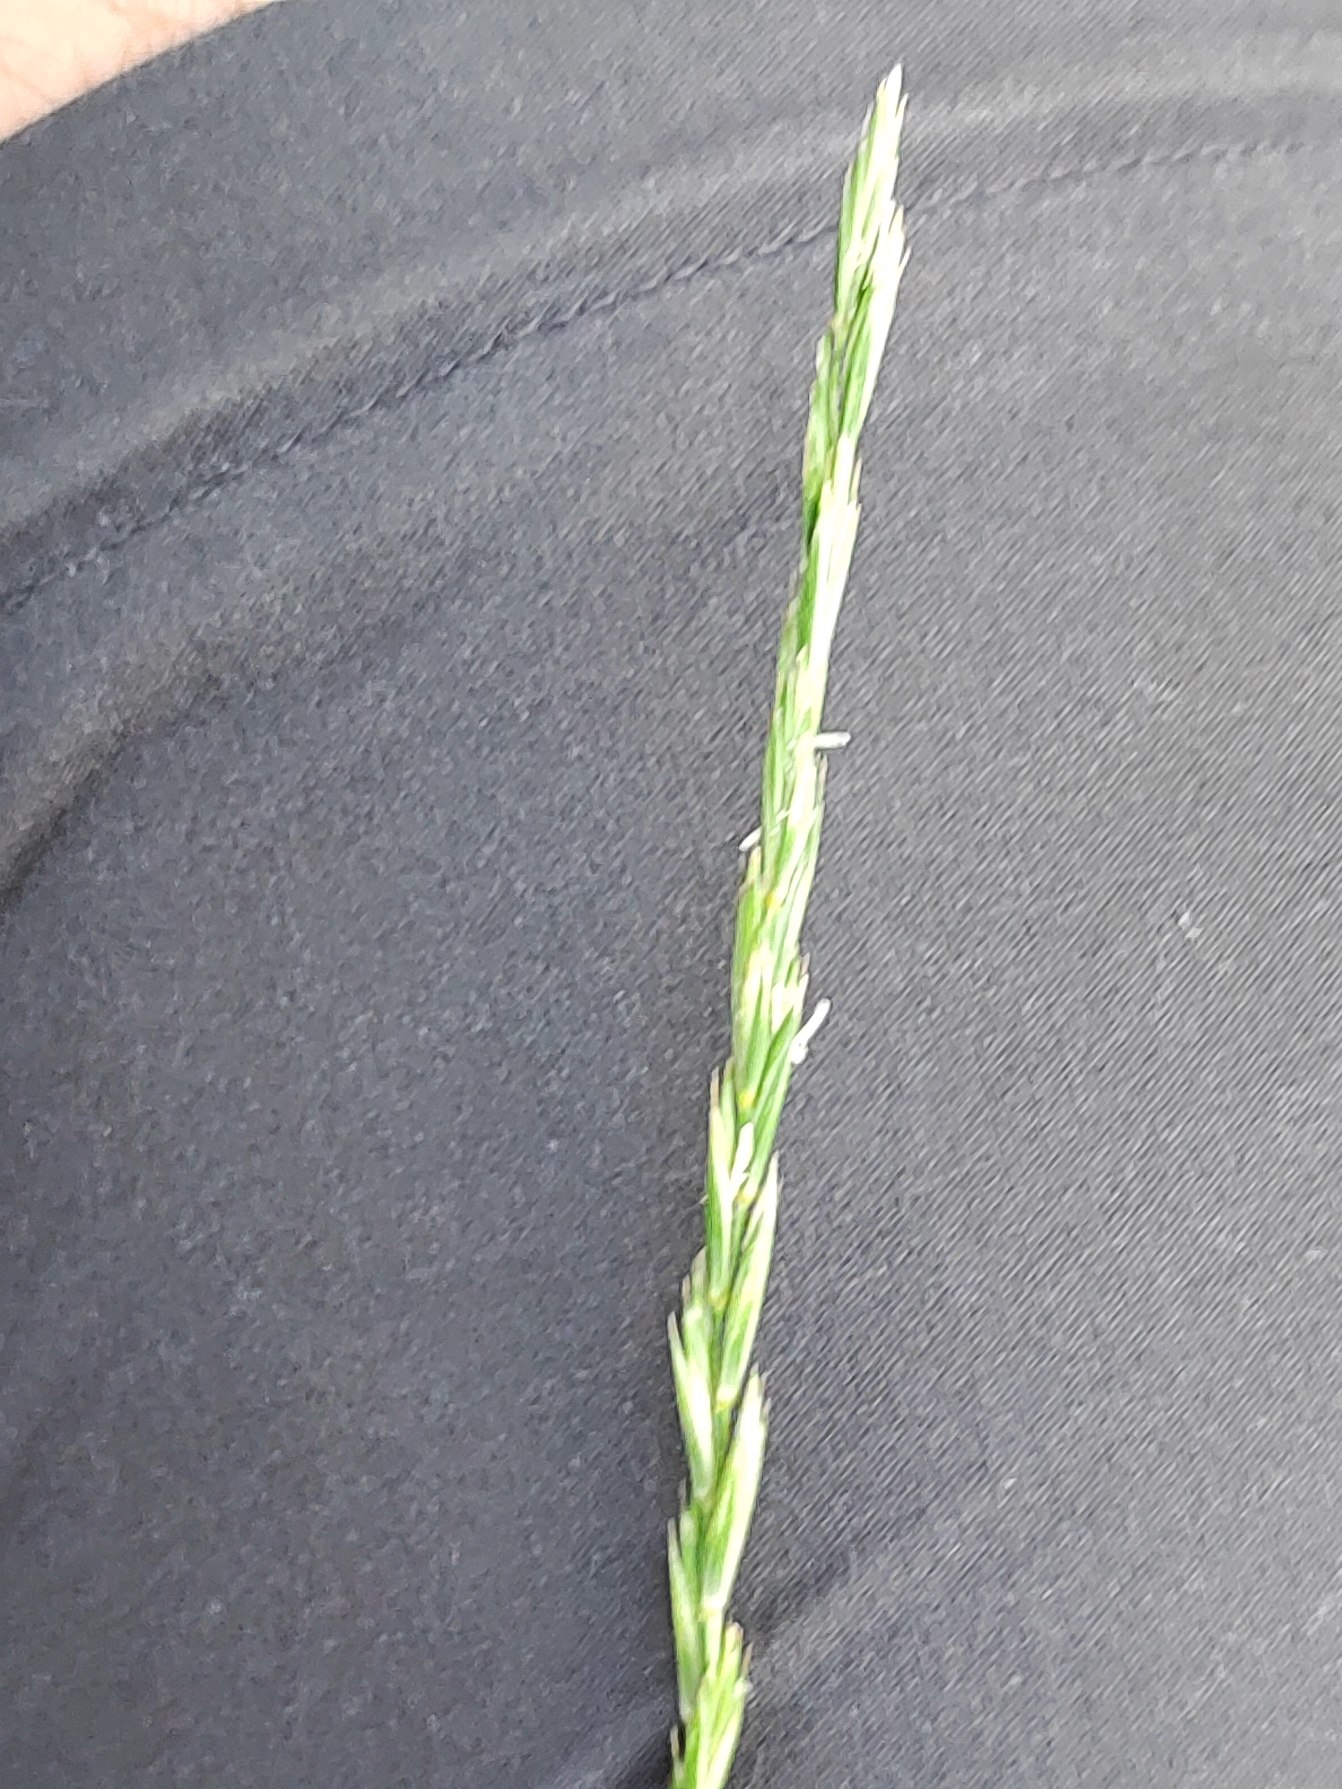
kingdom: Plantae
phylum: Tracheophyta
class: Liliopsida
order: Poales
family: Poaceae
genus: Elymus
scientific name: Elymus repens
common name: Almindelig kvik
